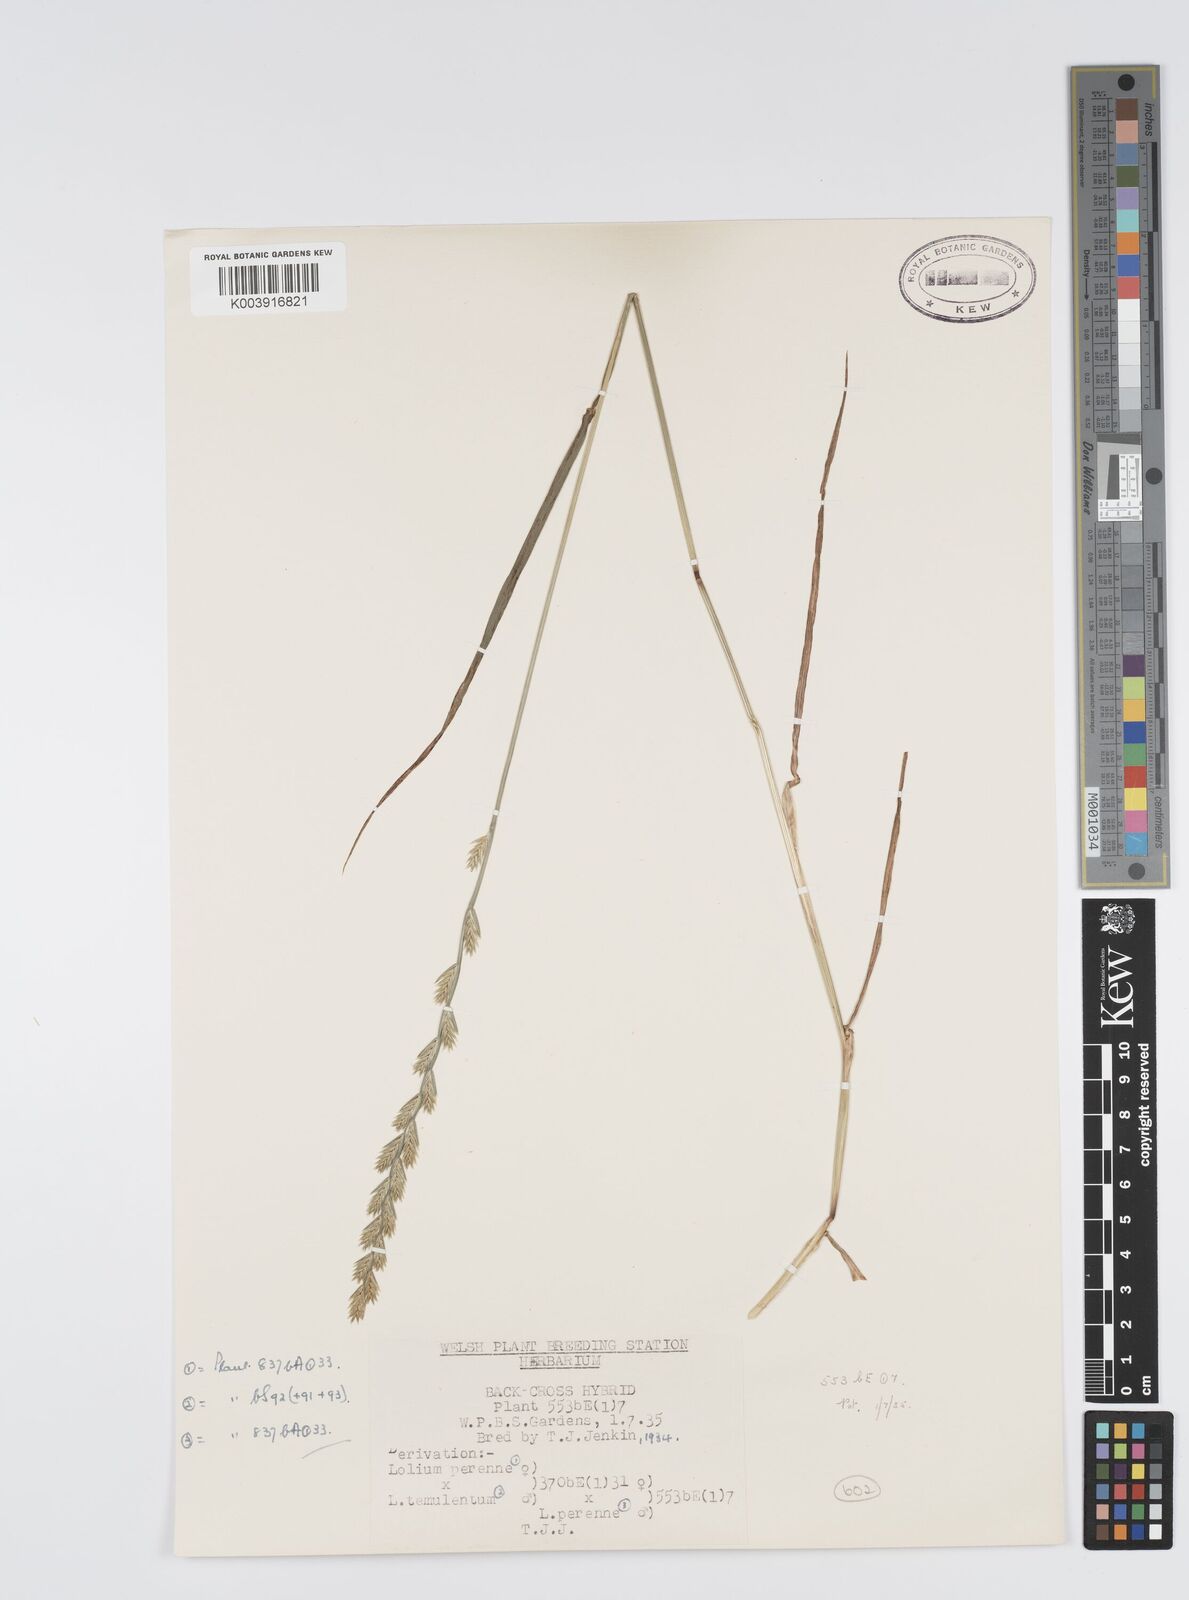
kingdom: Plantae
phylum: Tracheophyta
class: Liliopsida
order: Poales
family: Poaceae
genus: Lolium
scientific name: Lolium perenne
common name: Perennial ryegrass
